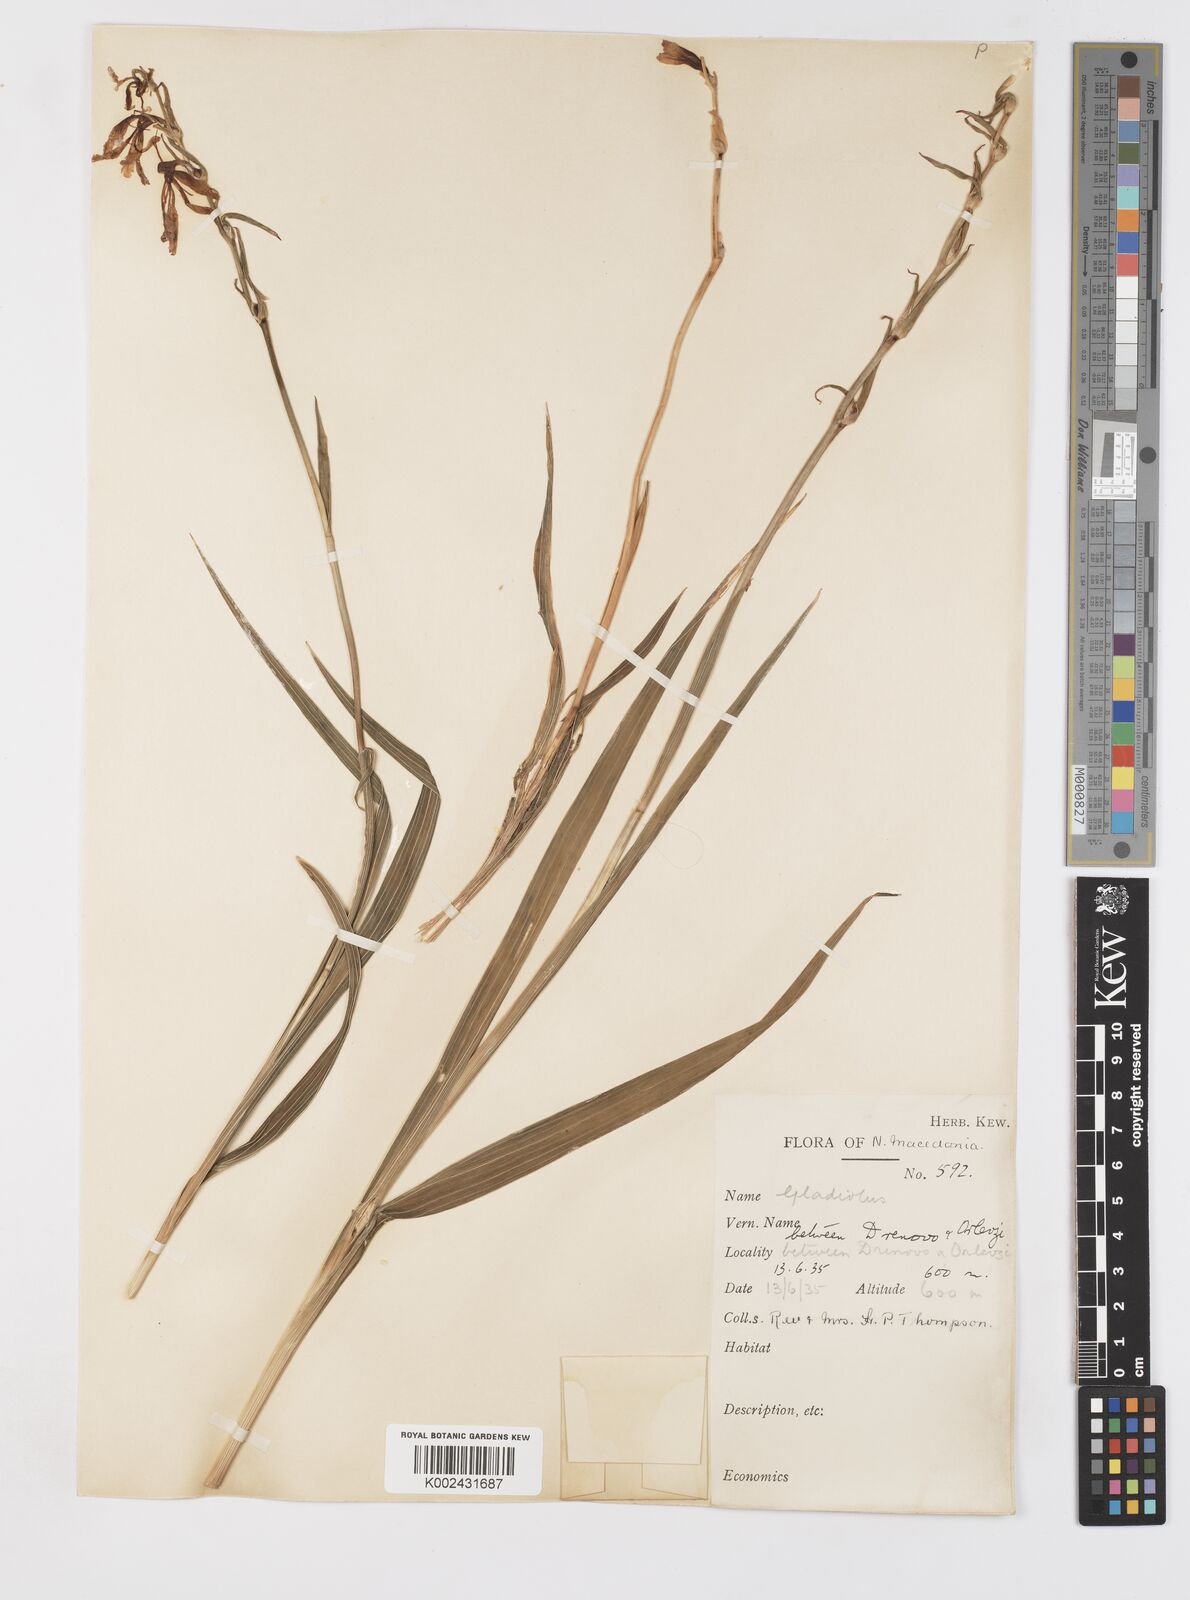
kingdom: Plantae
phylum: Tracheophyta
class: Liliopsida
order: Asparagales
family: Iridaceae
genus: Gladiolus
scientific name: Gladiolus illyricus
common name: Wild gladiolus
